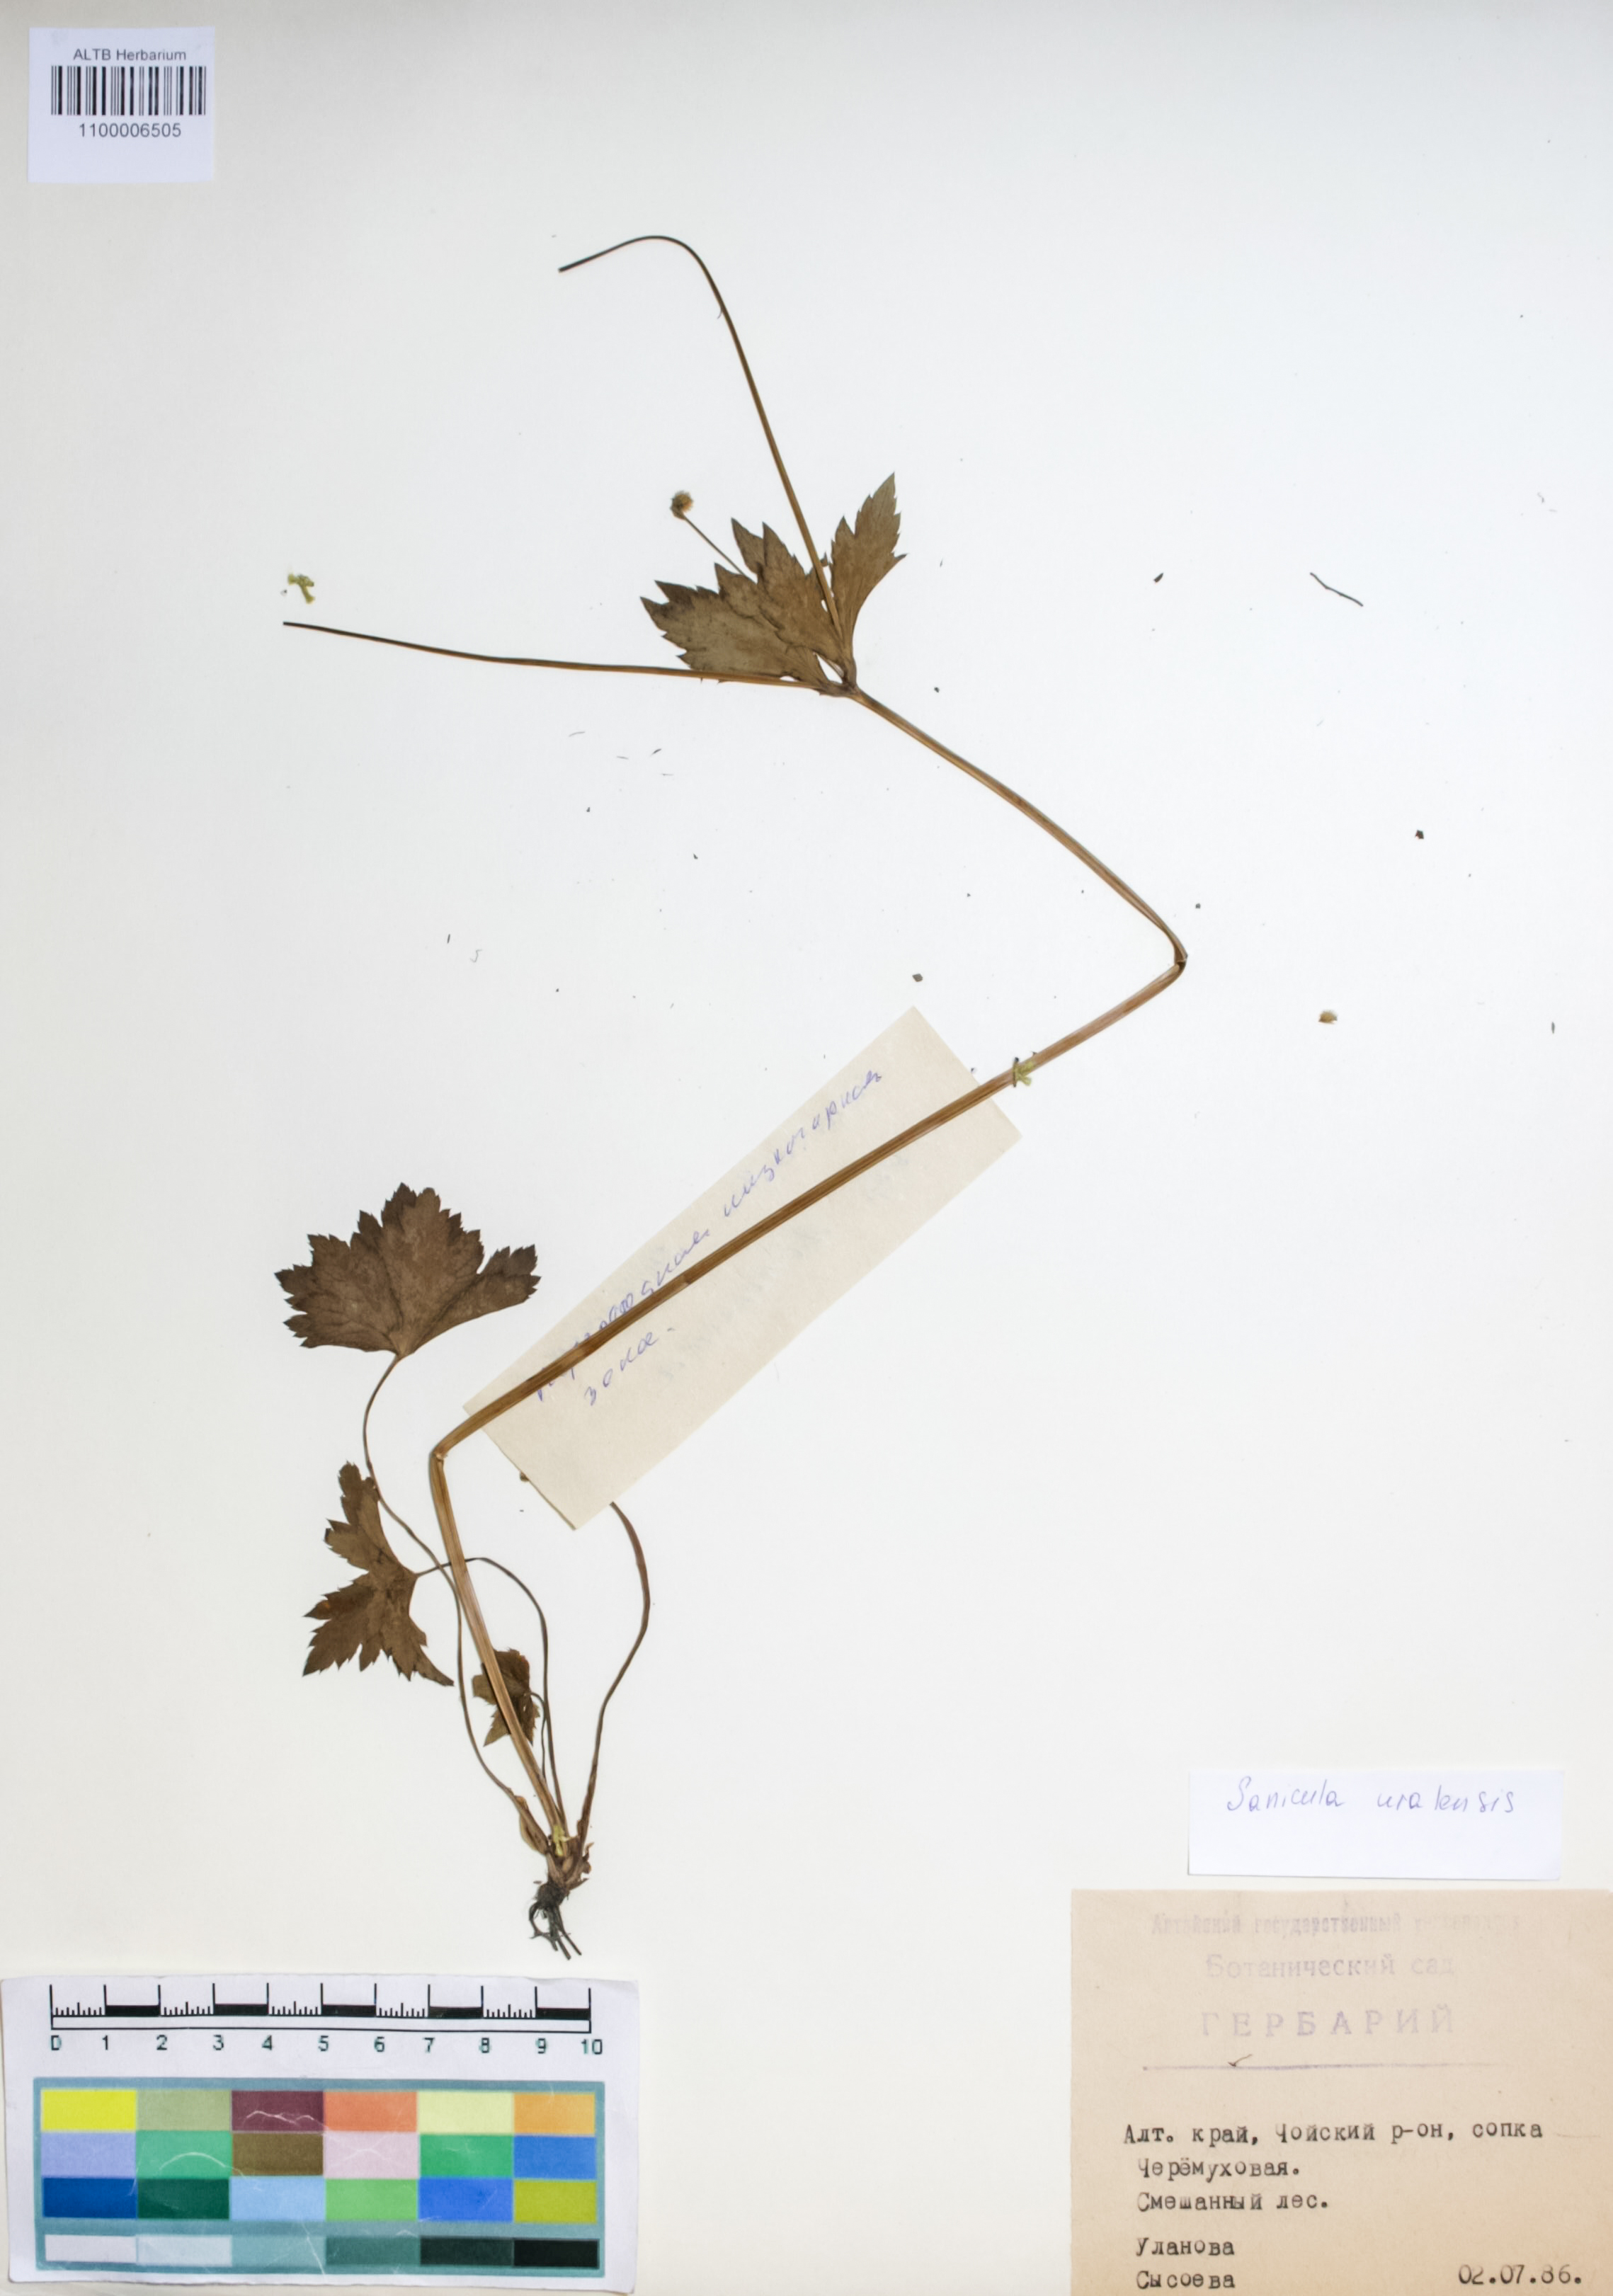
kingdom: Plantae
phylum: Tracheophyta
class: Magnoliopsida
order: Apiales
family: Apiaceae
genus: Sanicula
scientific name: Sanicula giraldii
